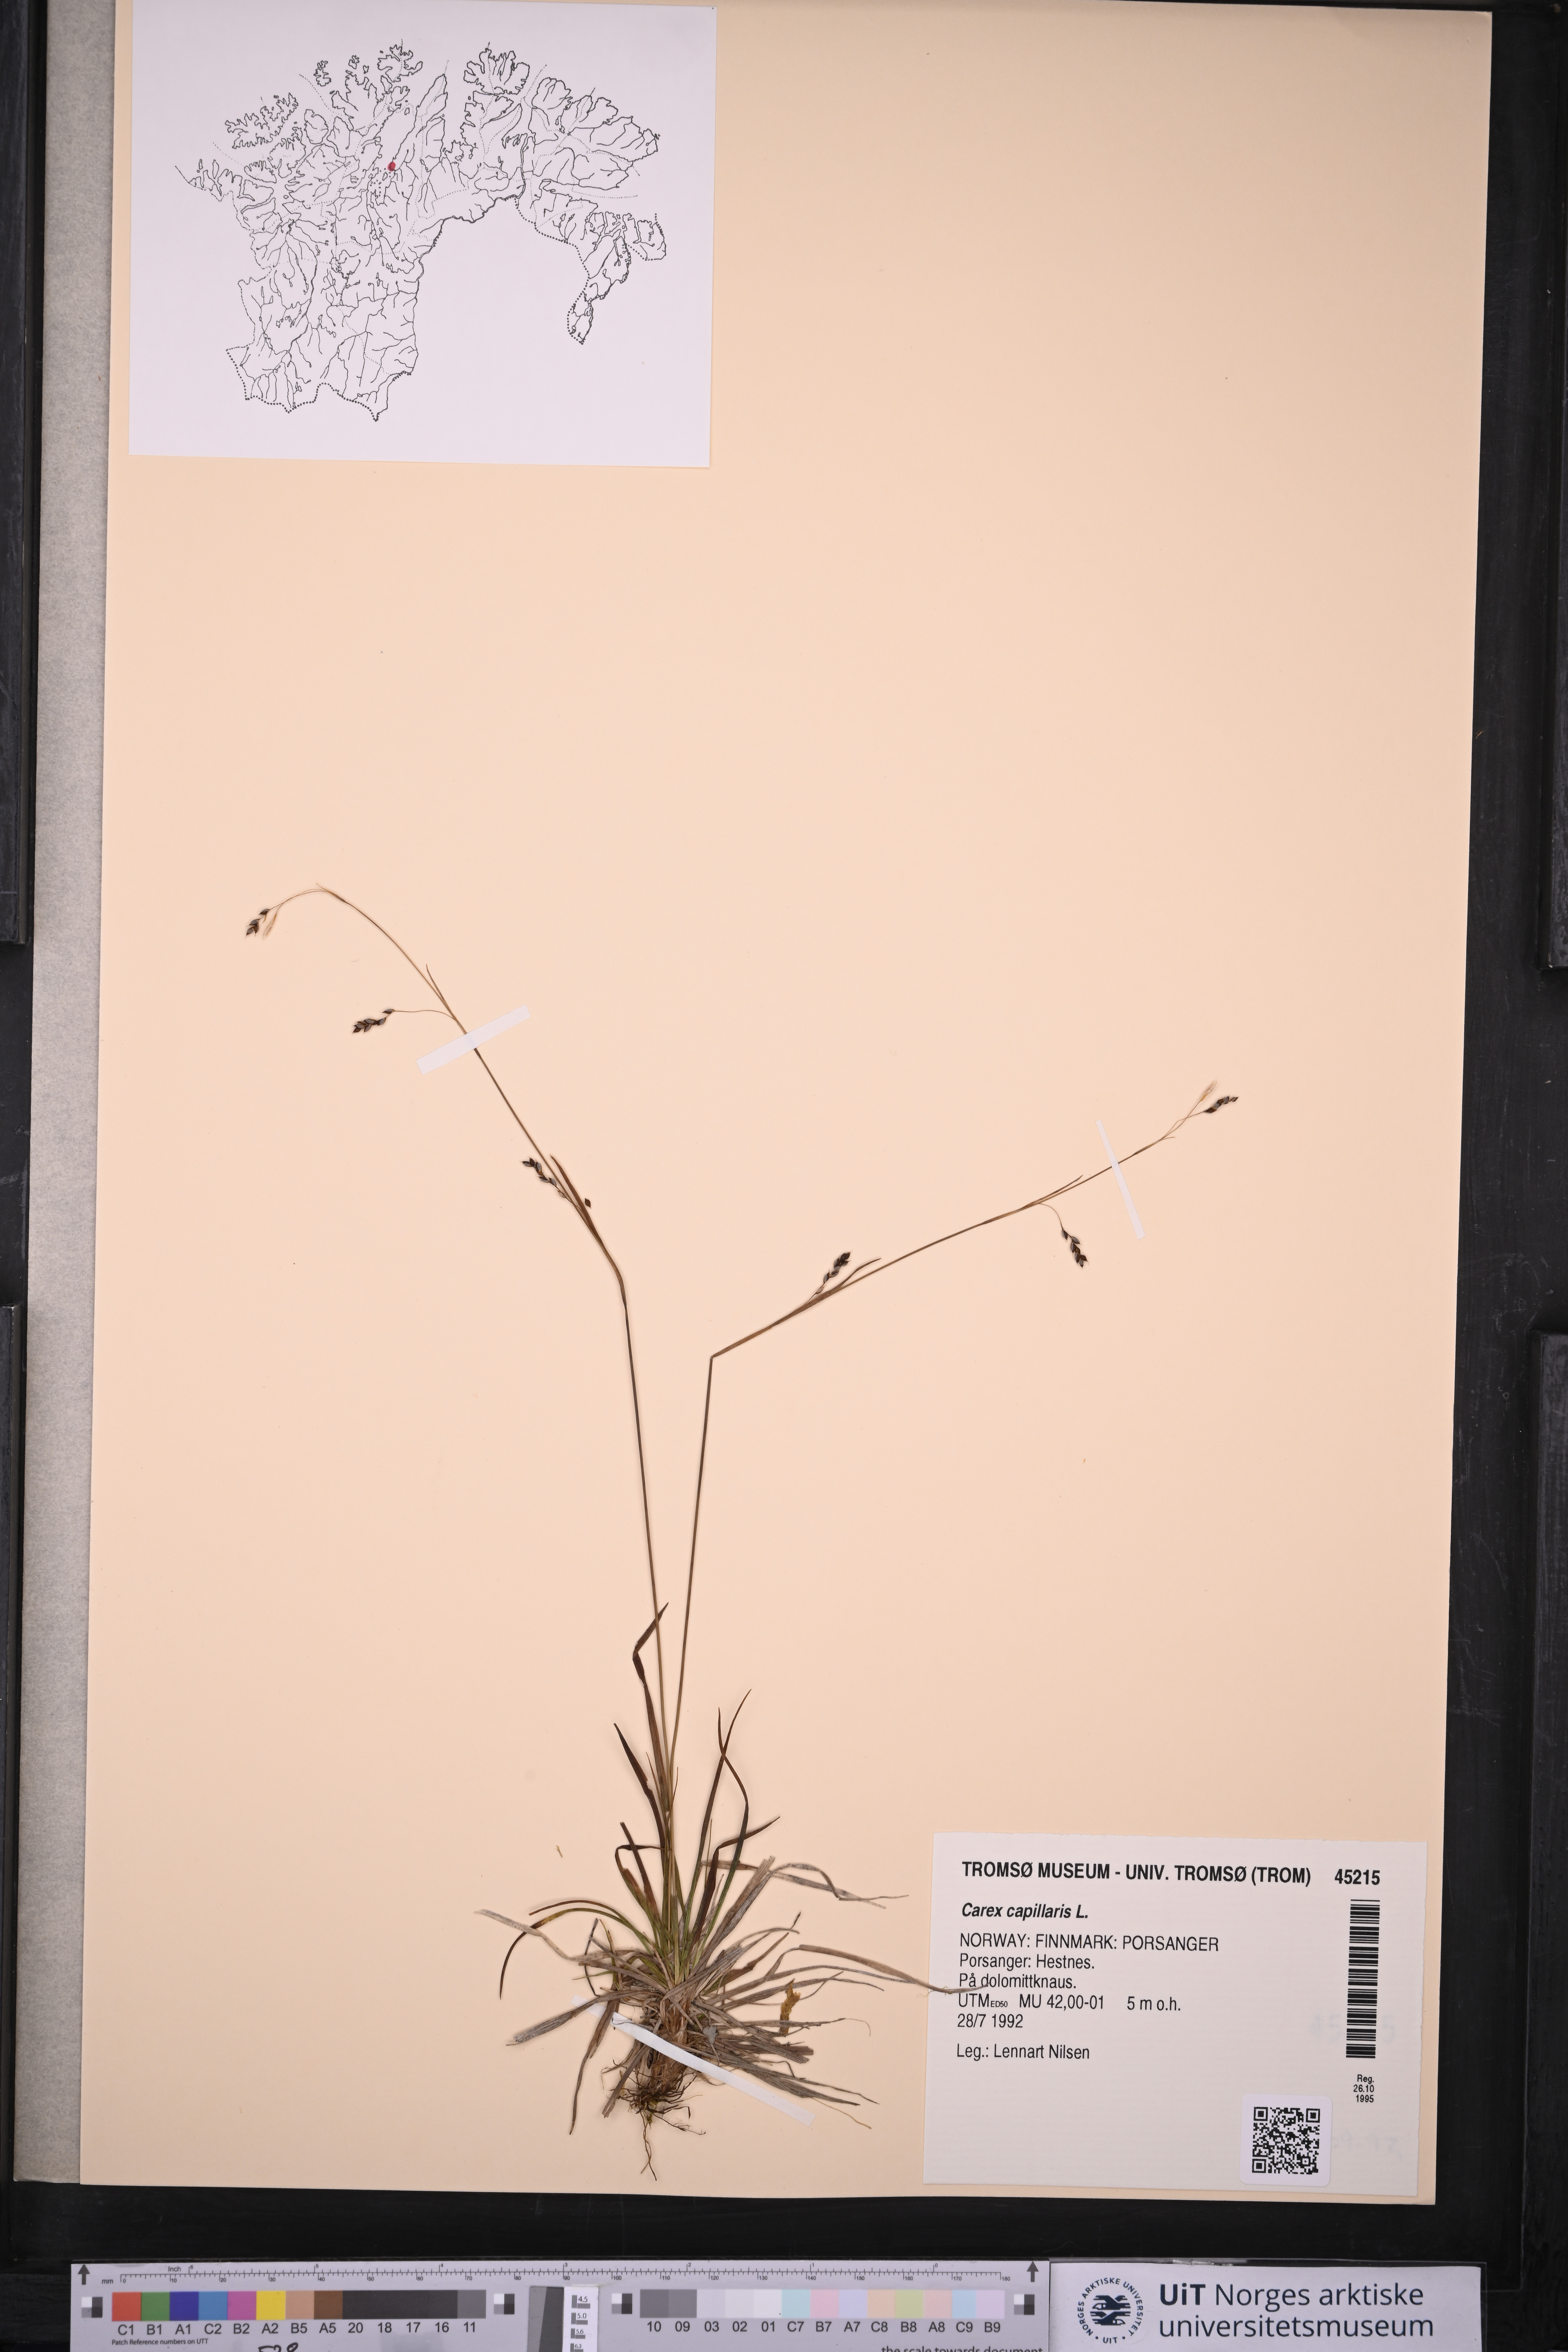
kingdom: Plantae
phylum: Tracheophyta
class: Liliopsida
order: Poales
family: Cyperaceae
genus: Carex
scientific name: Carex capillaris
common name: Hair sedge
